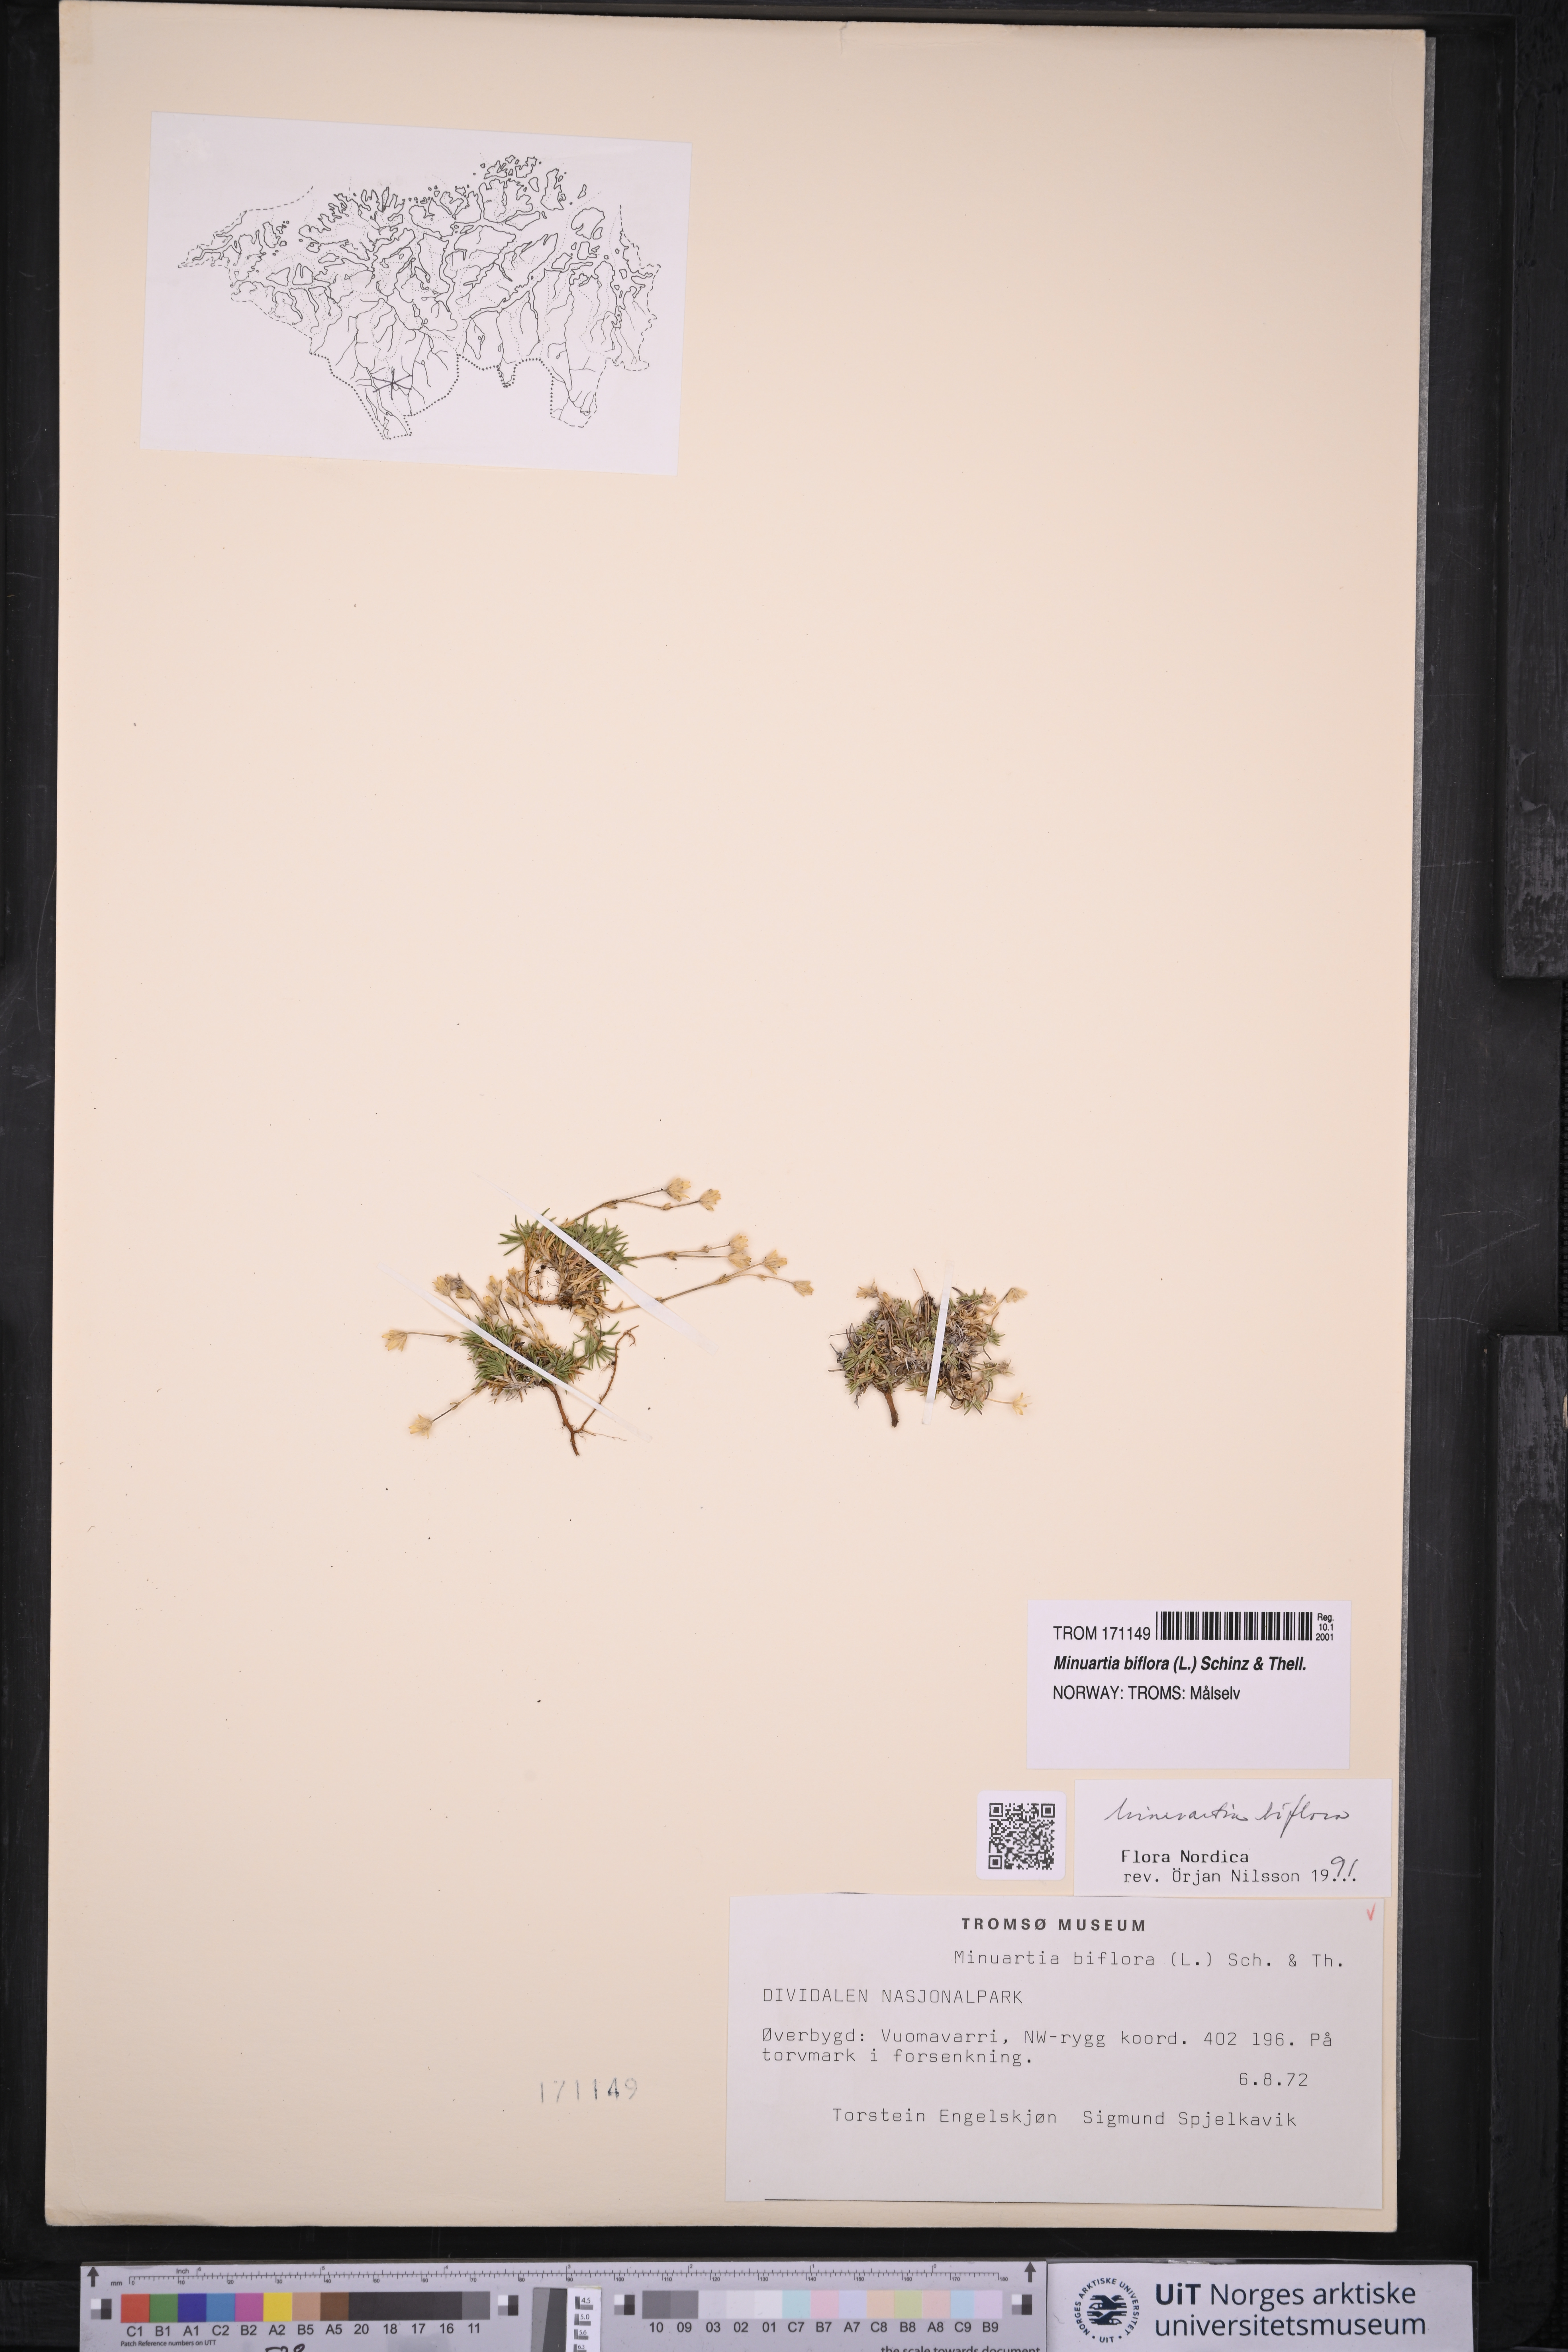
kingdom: Plantae
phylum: Tracheophyta
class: Magnoliopsida
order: Caryophyllales
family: Caryophyllaceae
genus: Cherleria
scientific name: Cherleria biflora
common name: Mountain sandwort
